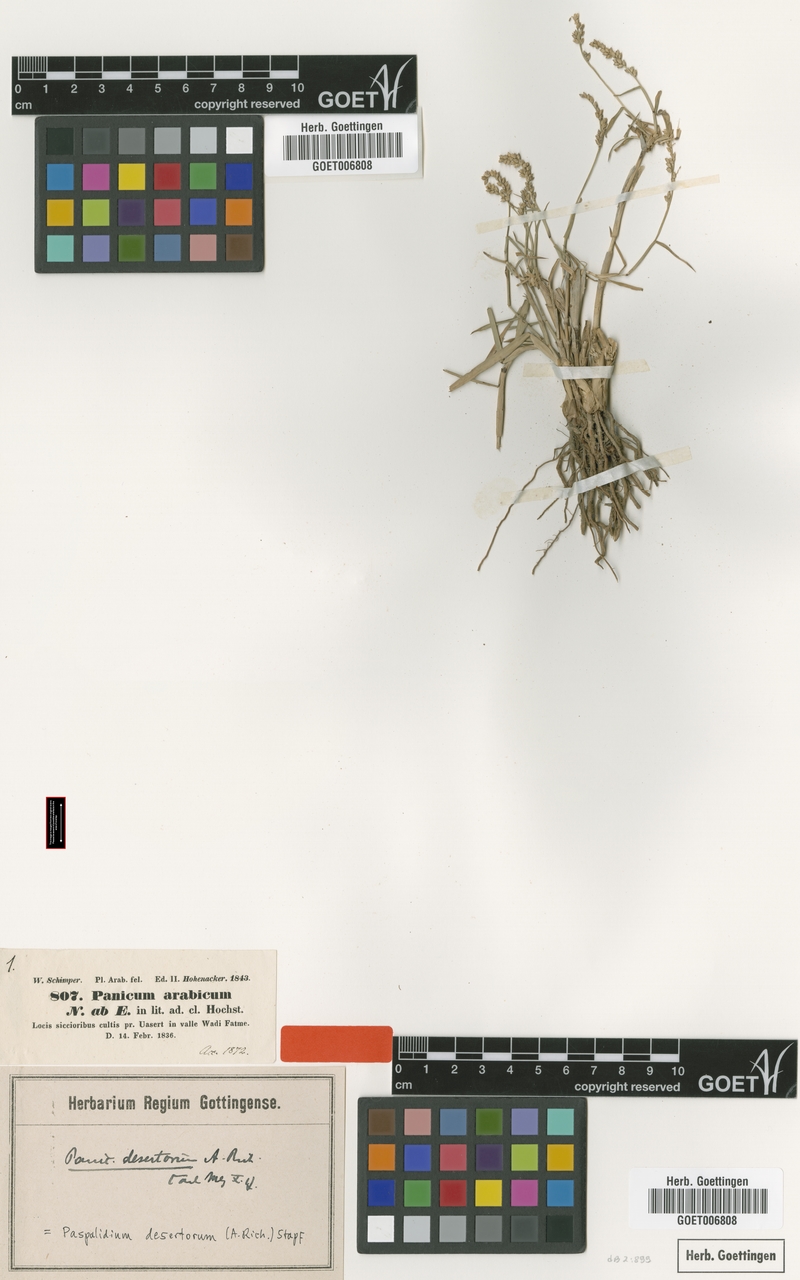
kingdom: Plantae
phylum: Tracheophyta
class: Liliopsida
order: Poales
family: Poaceae
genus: Setaria
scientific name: Setaria desertorum
